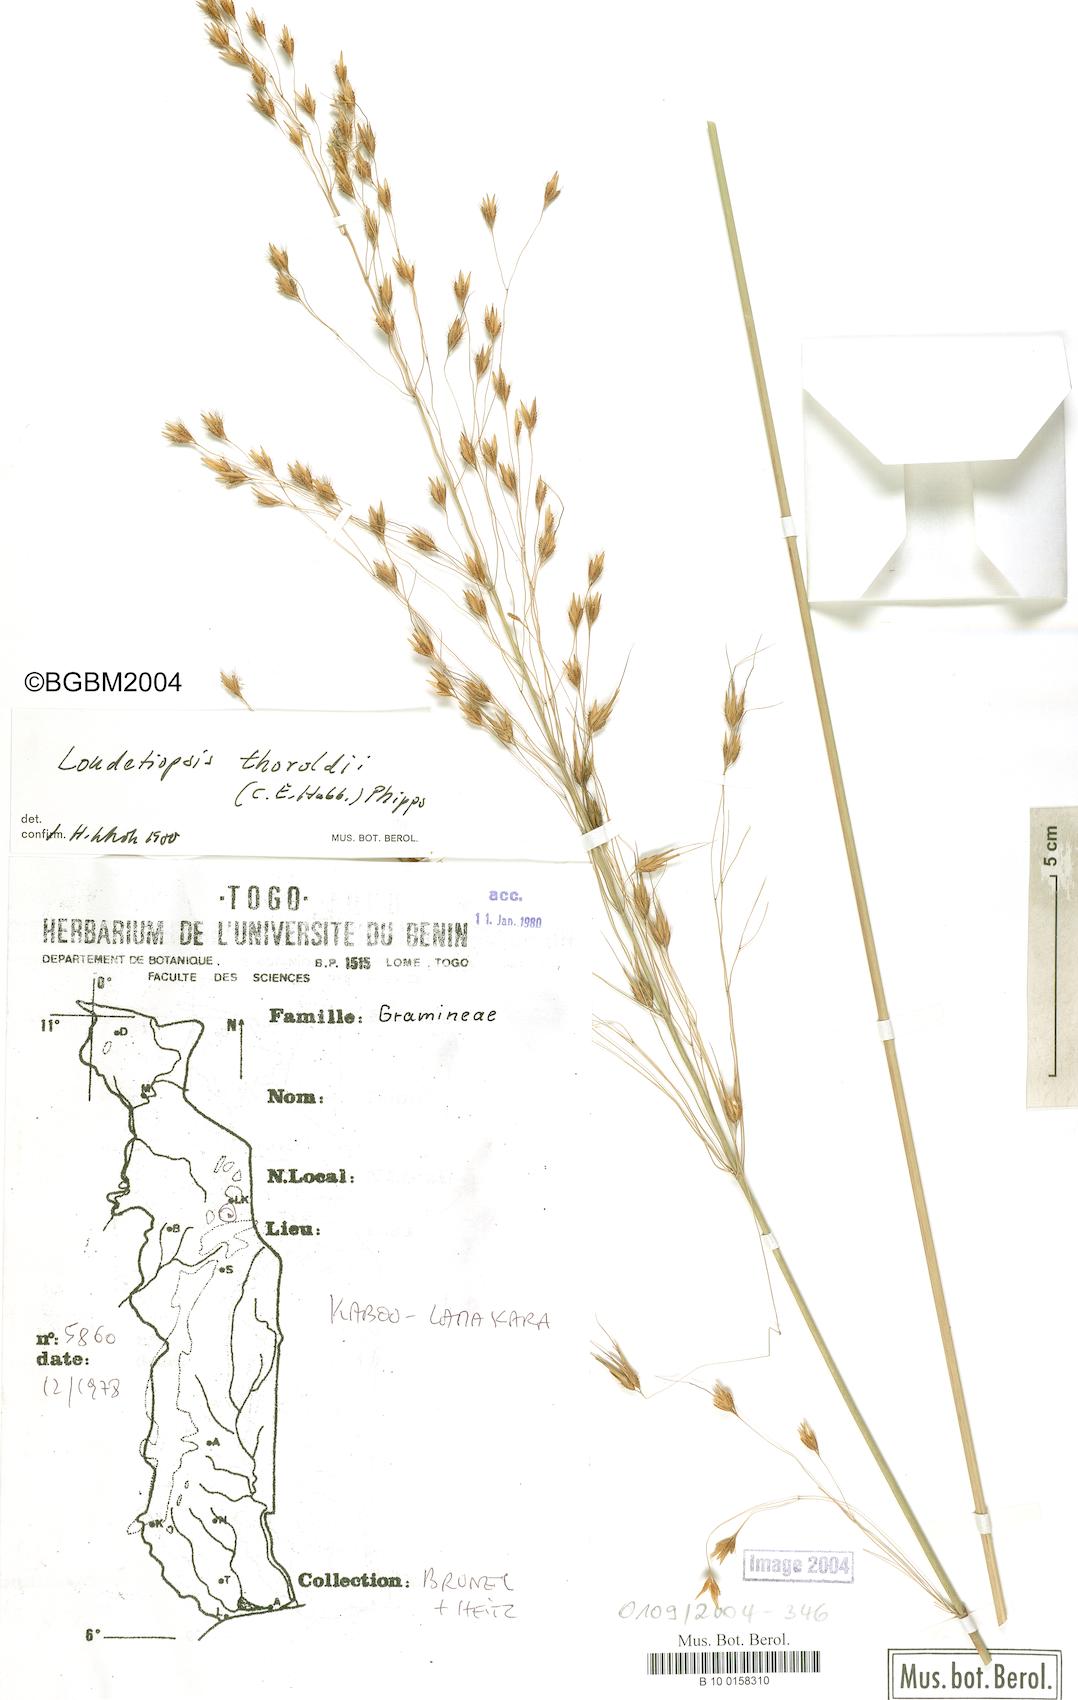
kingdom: Plantae
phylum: Tracheophyta
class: Liliopsida
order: Poales
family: Poaceae
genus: Loudetiopsis
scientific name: Loudetiopsis thoroldii
